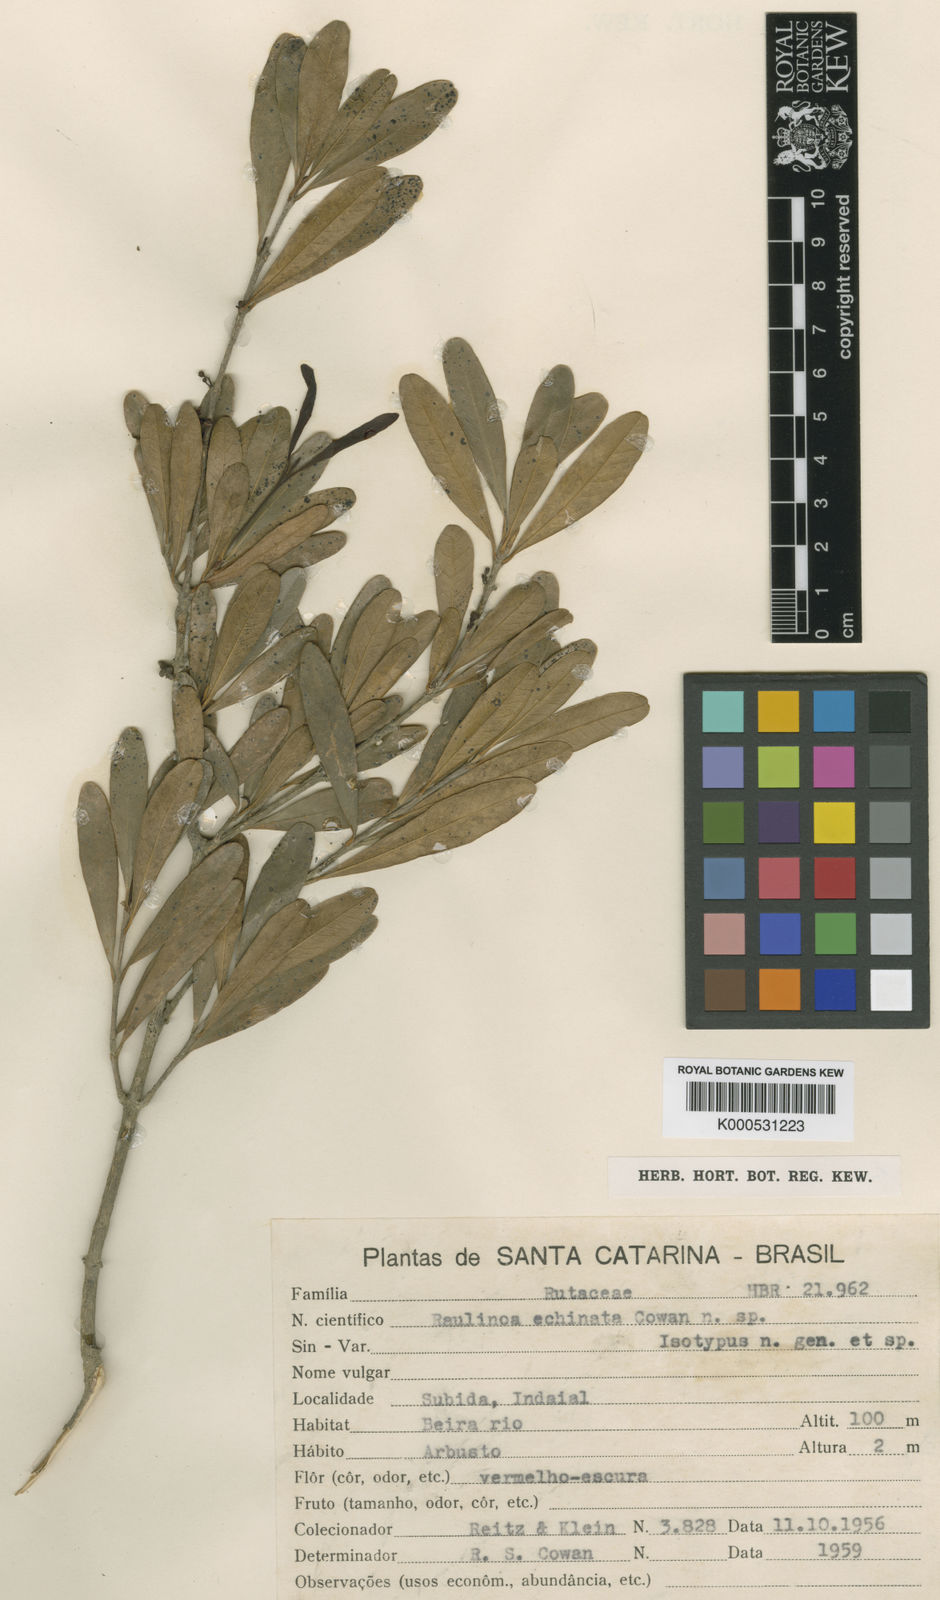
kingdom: Plantae
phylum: Tracheophyta
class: Magnoliopsida
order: Sapindales
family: Rutaceae
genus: Raulinoa
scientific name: Raulinoa echinata
